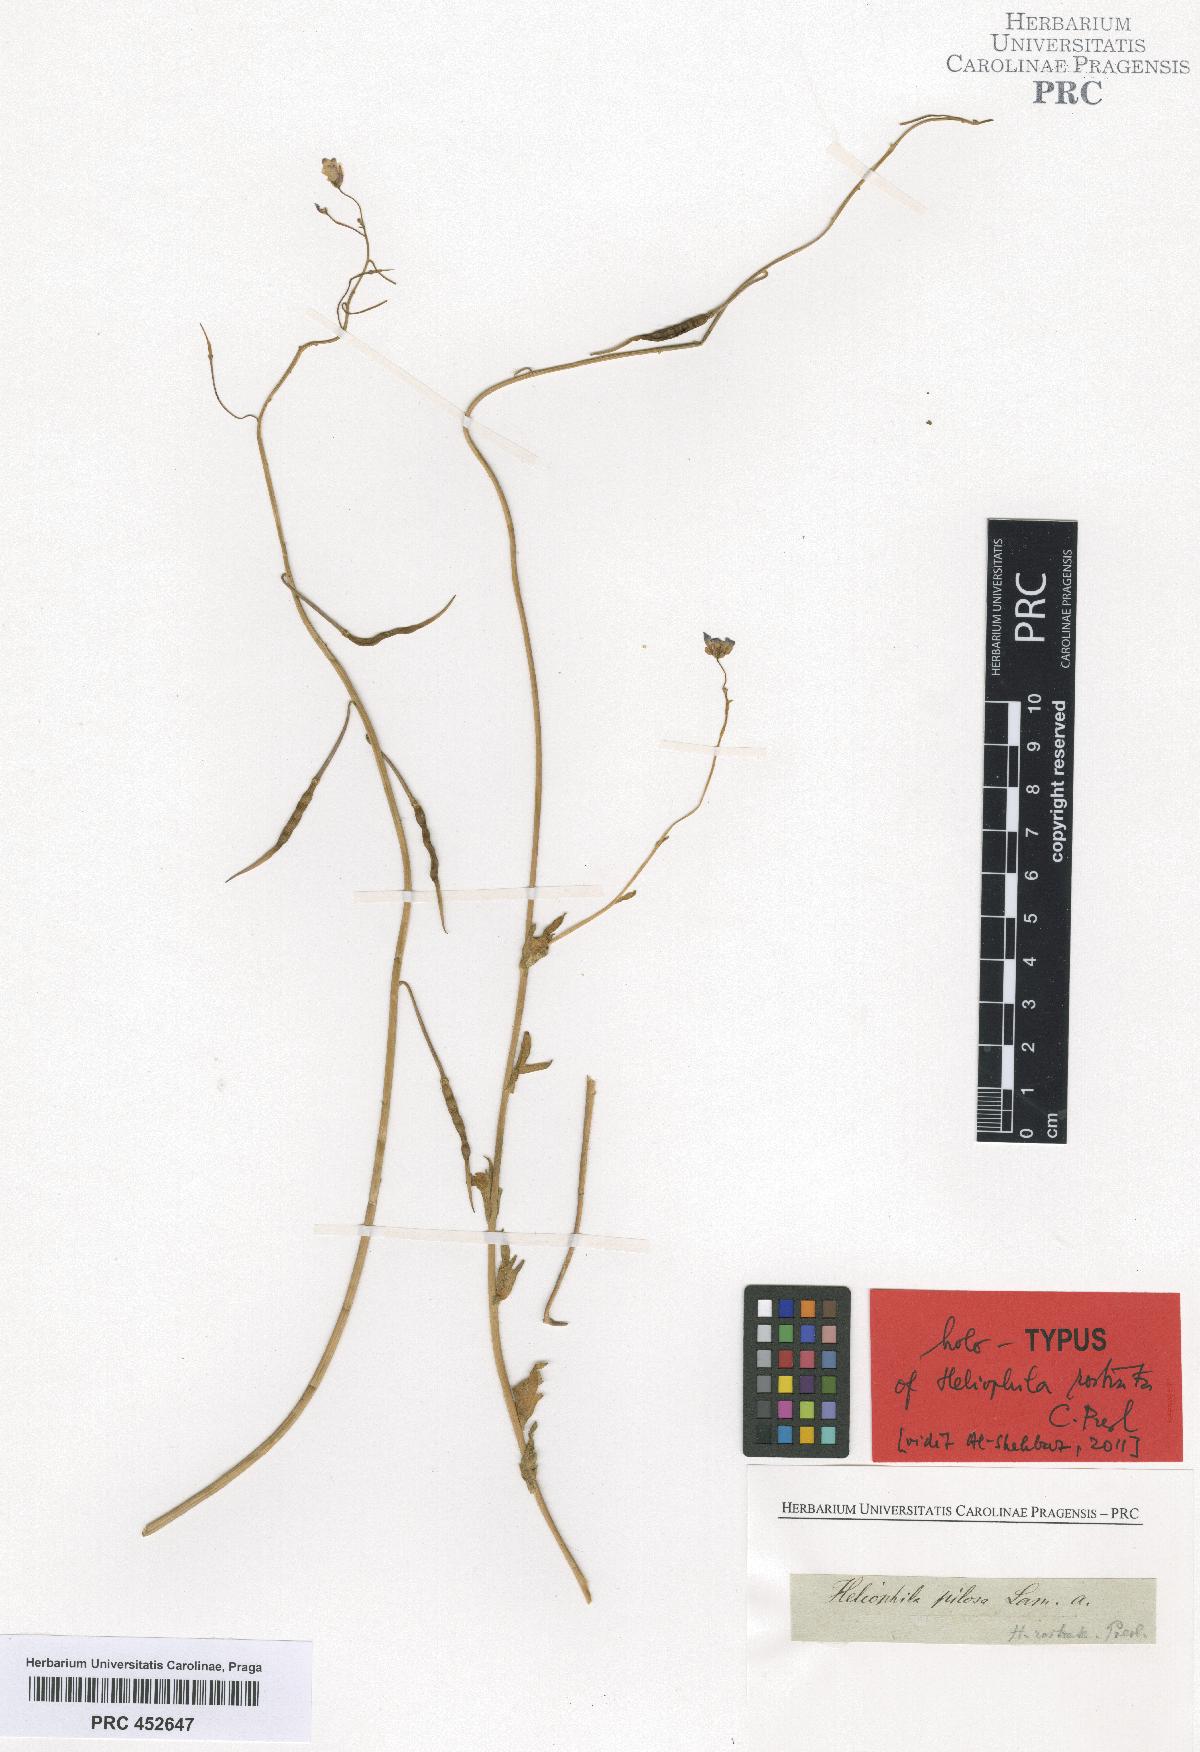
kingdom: Plantae
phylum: Tracheophyta
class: Magnoliopsida
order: Brassicales
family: Brassicaceae
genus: Heliophila
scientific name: Heliophila africana
